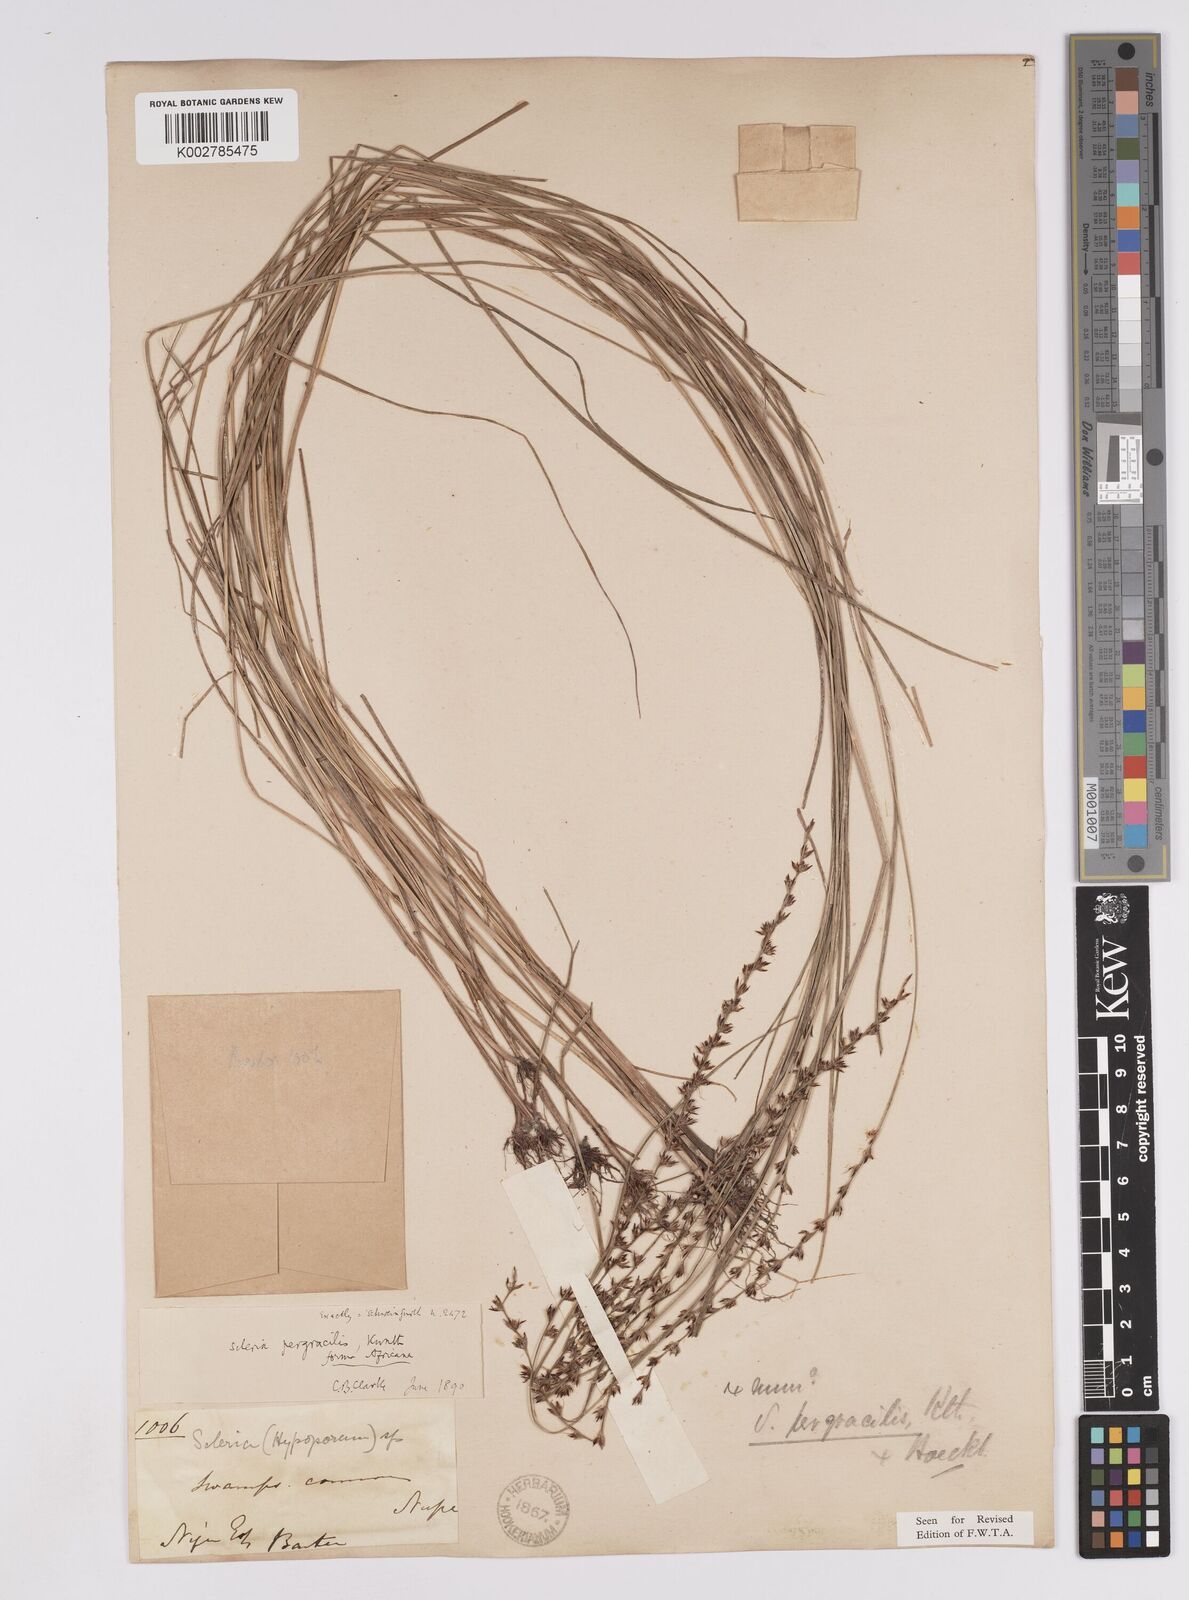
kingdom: Plantae
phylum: Tracheophyta
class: Liliopsida
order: Poales
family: Cyperaceae
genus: Scleria
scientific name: Scleria pergracilis
